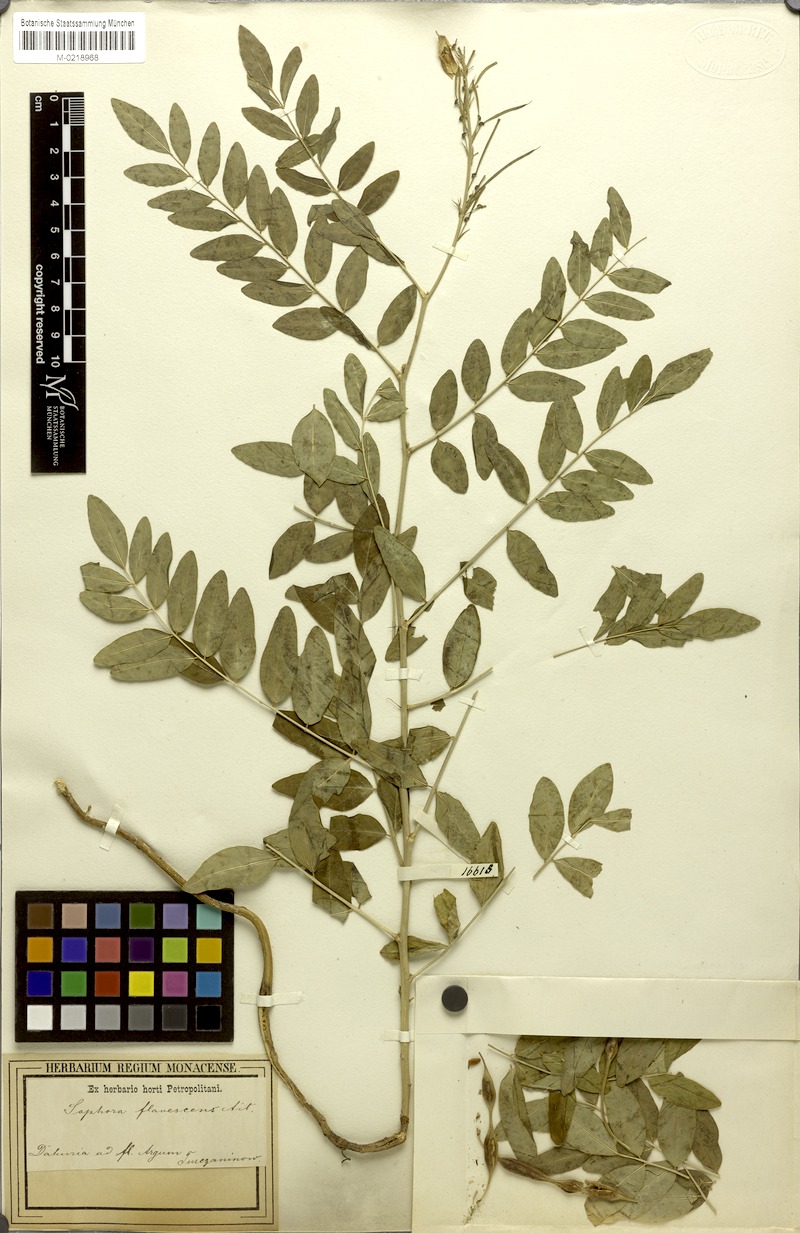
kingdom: Plantae
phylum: Tracheophyta
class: Magnoliopsida
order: Fabales
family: Fabaceae
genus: Sophora
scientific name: Sophora flavescens
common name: Shrubby sophora
